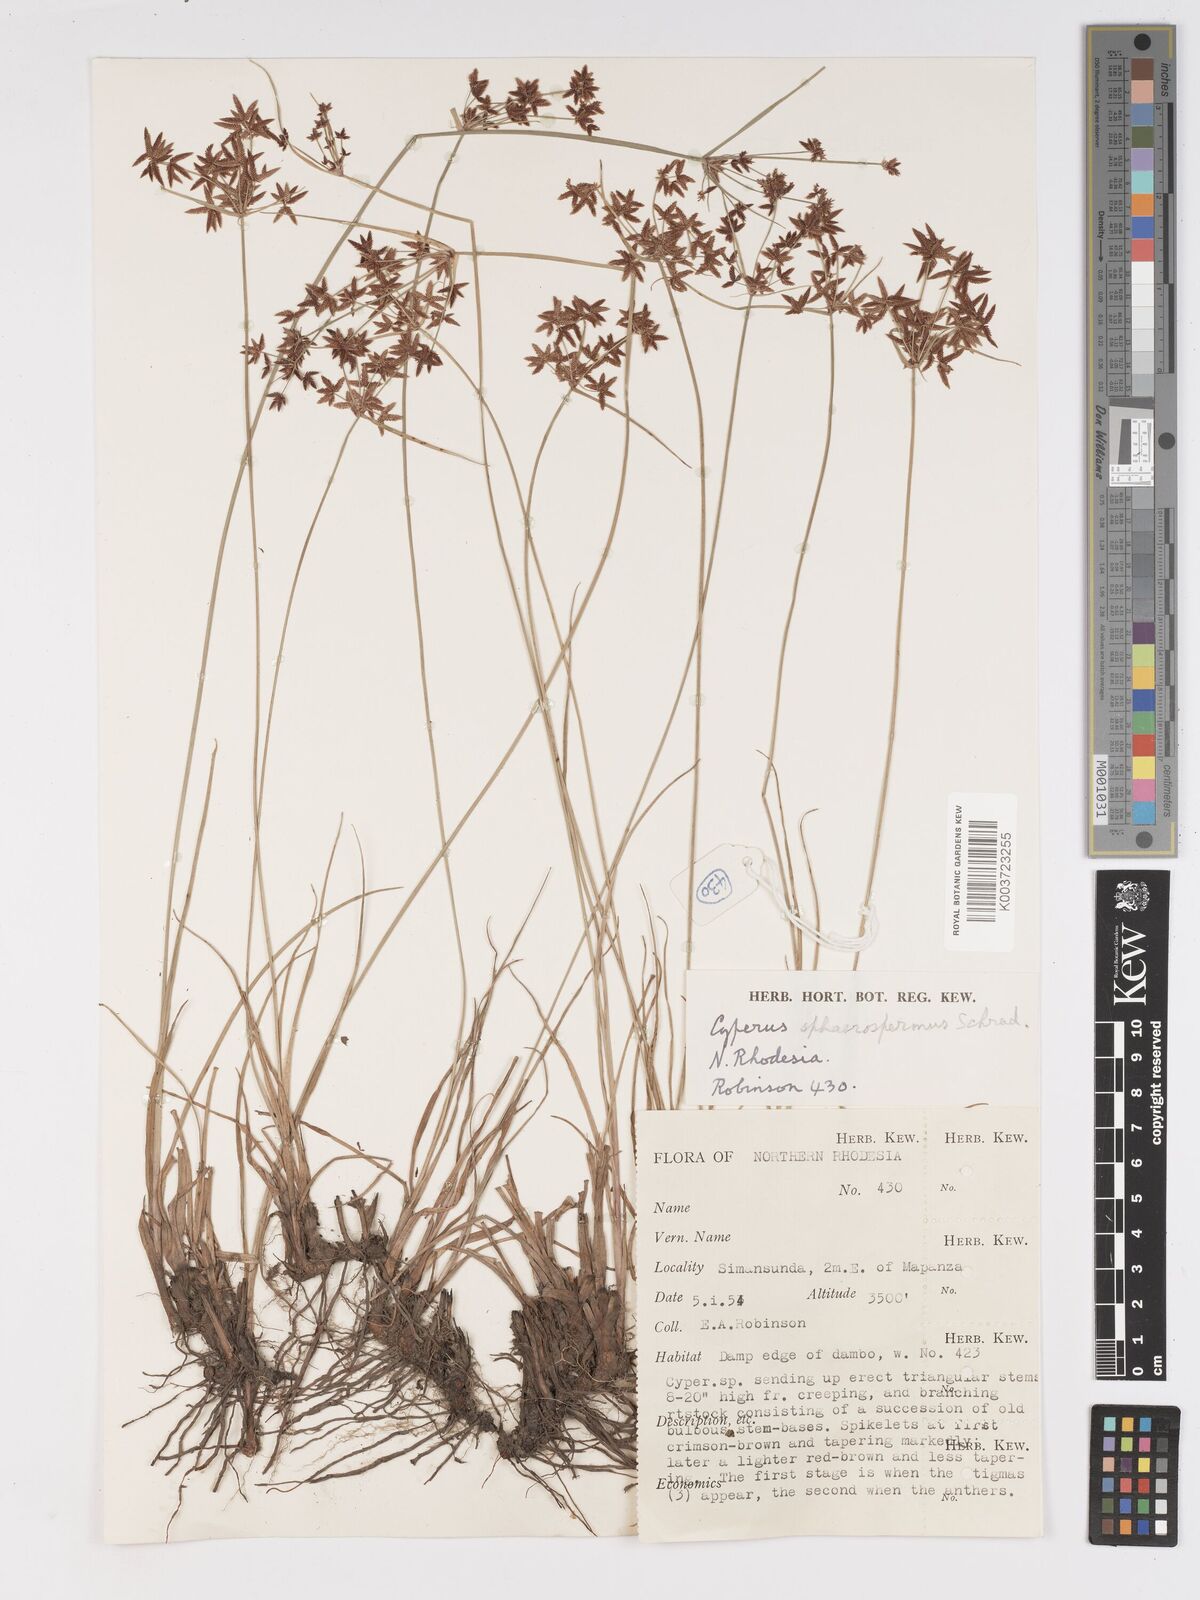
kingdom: Plantae
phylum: Tracheophyta
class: Liliopsida
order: Poales
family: Cyperaceae
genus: Cyperus
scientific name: Cyperus denudatus
